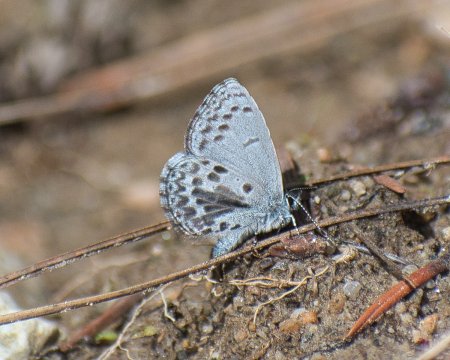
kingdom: Animalia
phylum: Arthropoda
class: Insecta
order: Lepidoptera
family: Lycaenidae
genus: Celastrina
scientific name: Celastrina
